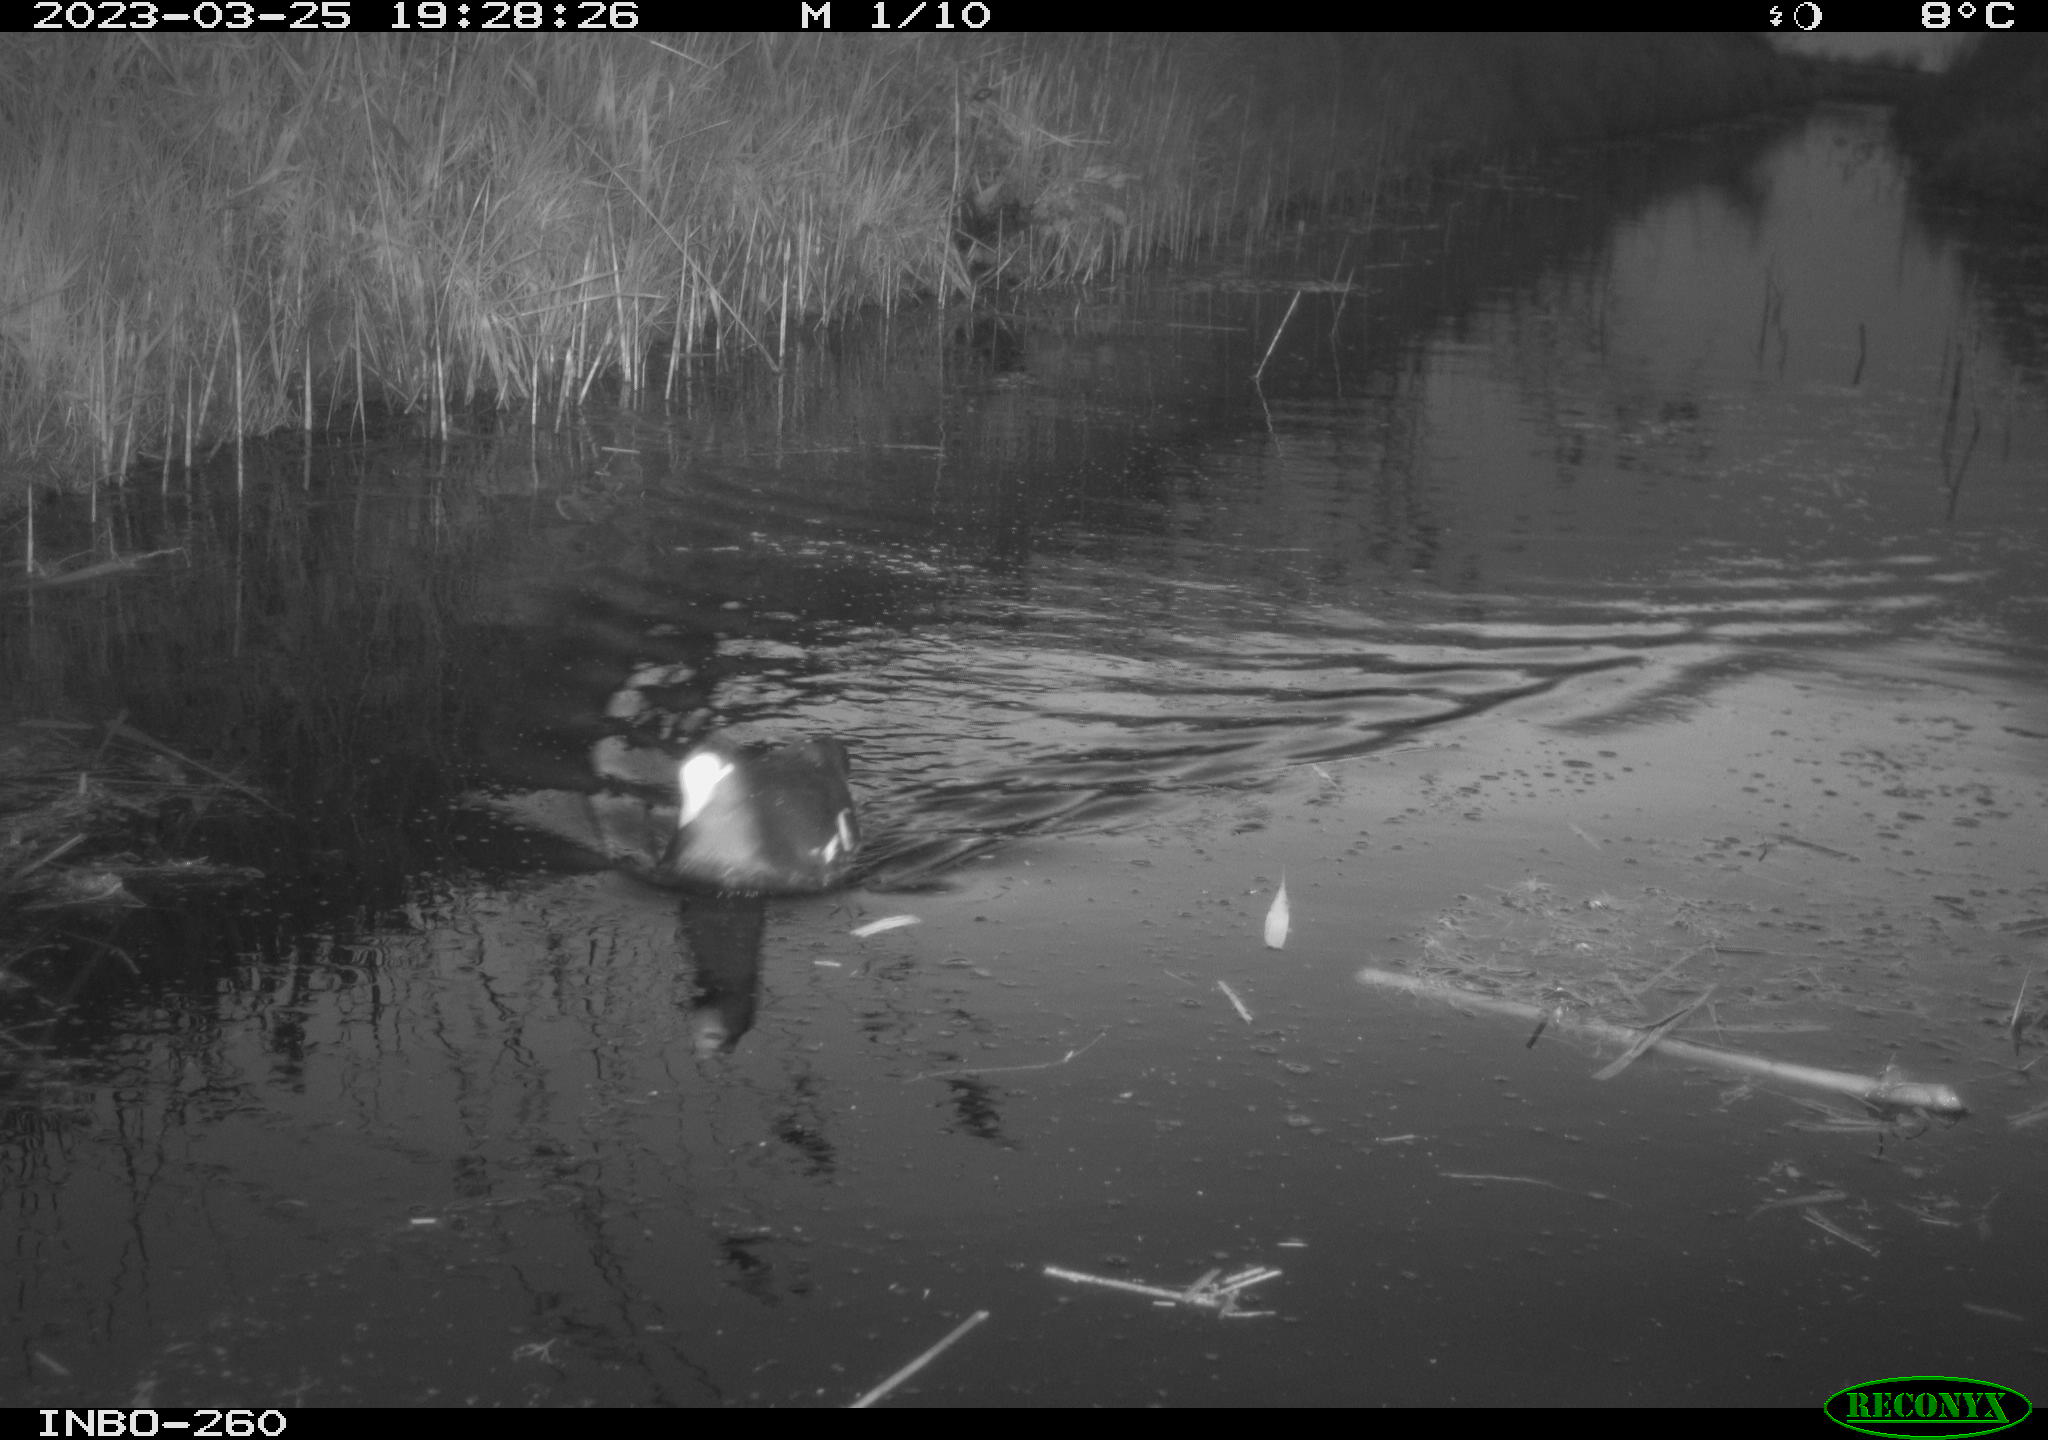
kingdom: Animalia
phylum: Chordata
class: Aves
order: Gruiformes
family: Rallidae
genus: Fulica
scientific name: Fulica atra
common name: Eurasian coot
